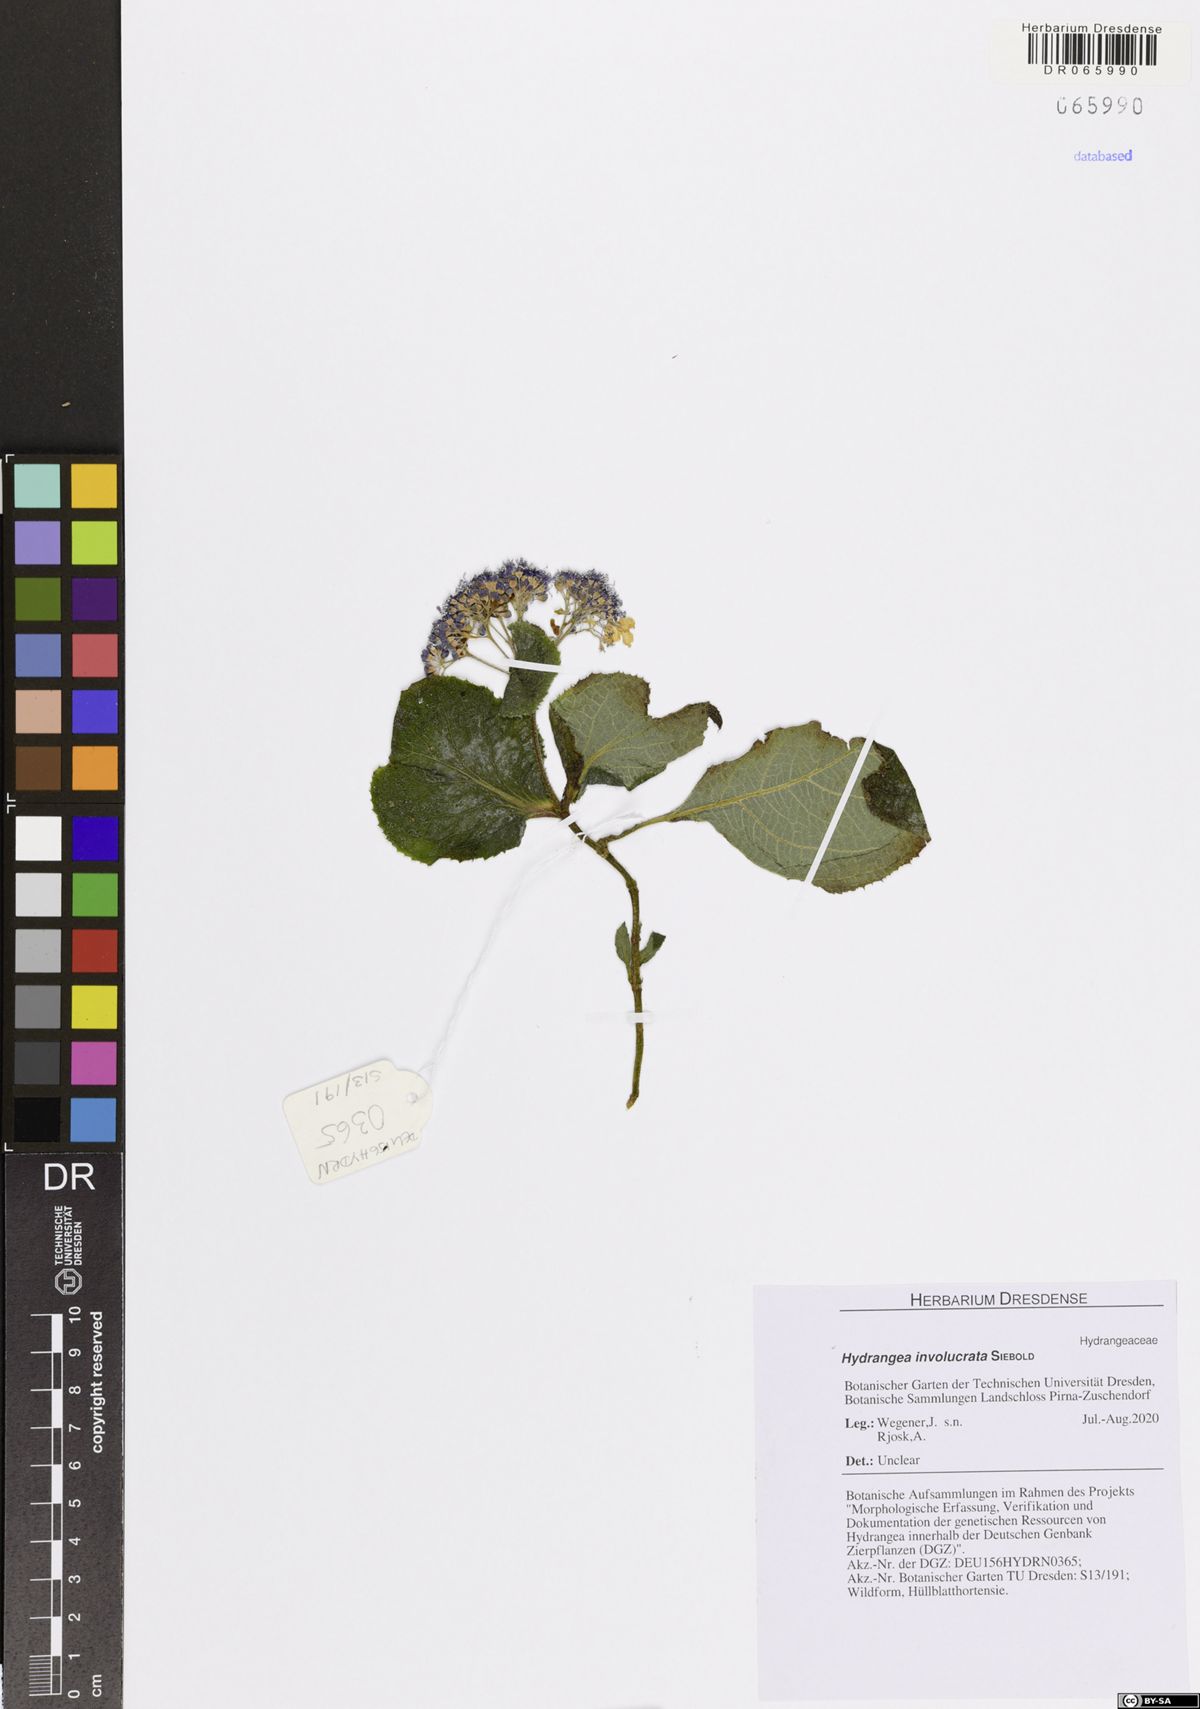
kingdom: Plantae
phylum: Tracheophyta
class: Magnoliopsida
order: Cornales
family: Hydrangeaceae
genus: Hydrangea
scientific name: Hydrangea involucrata
